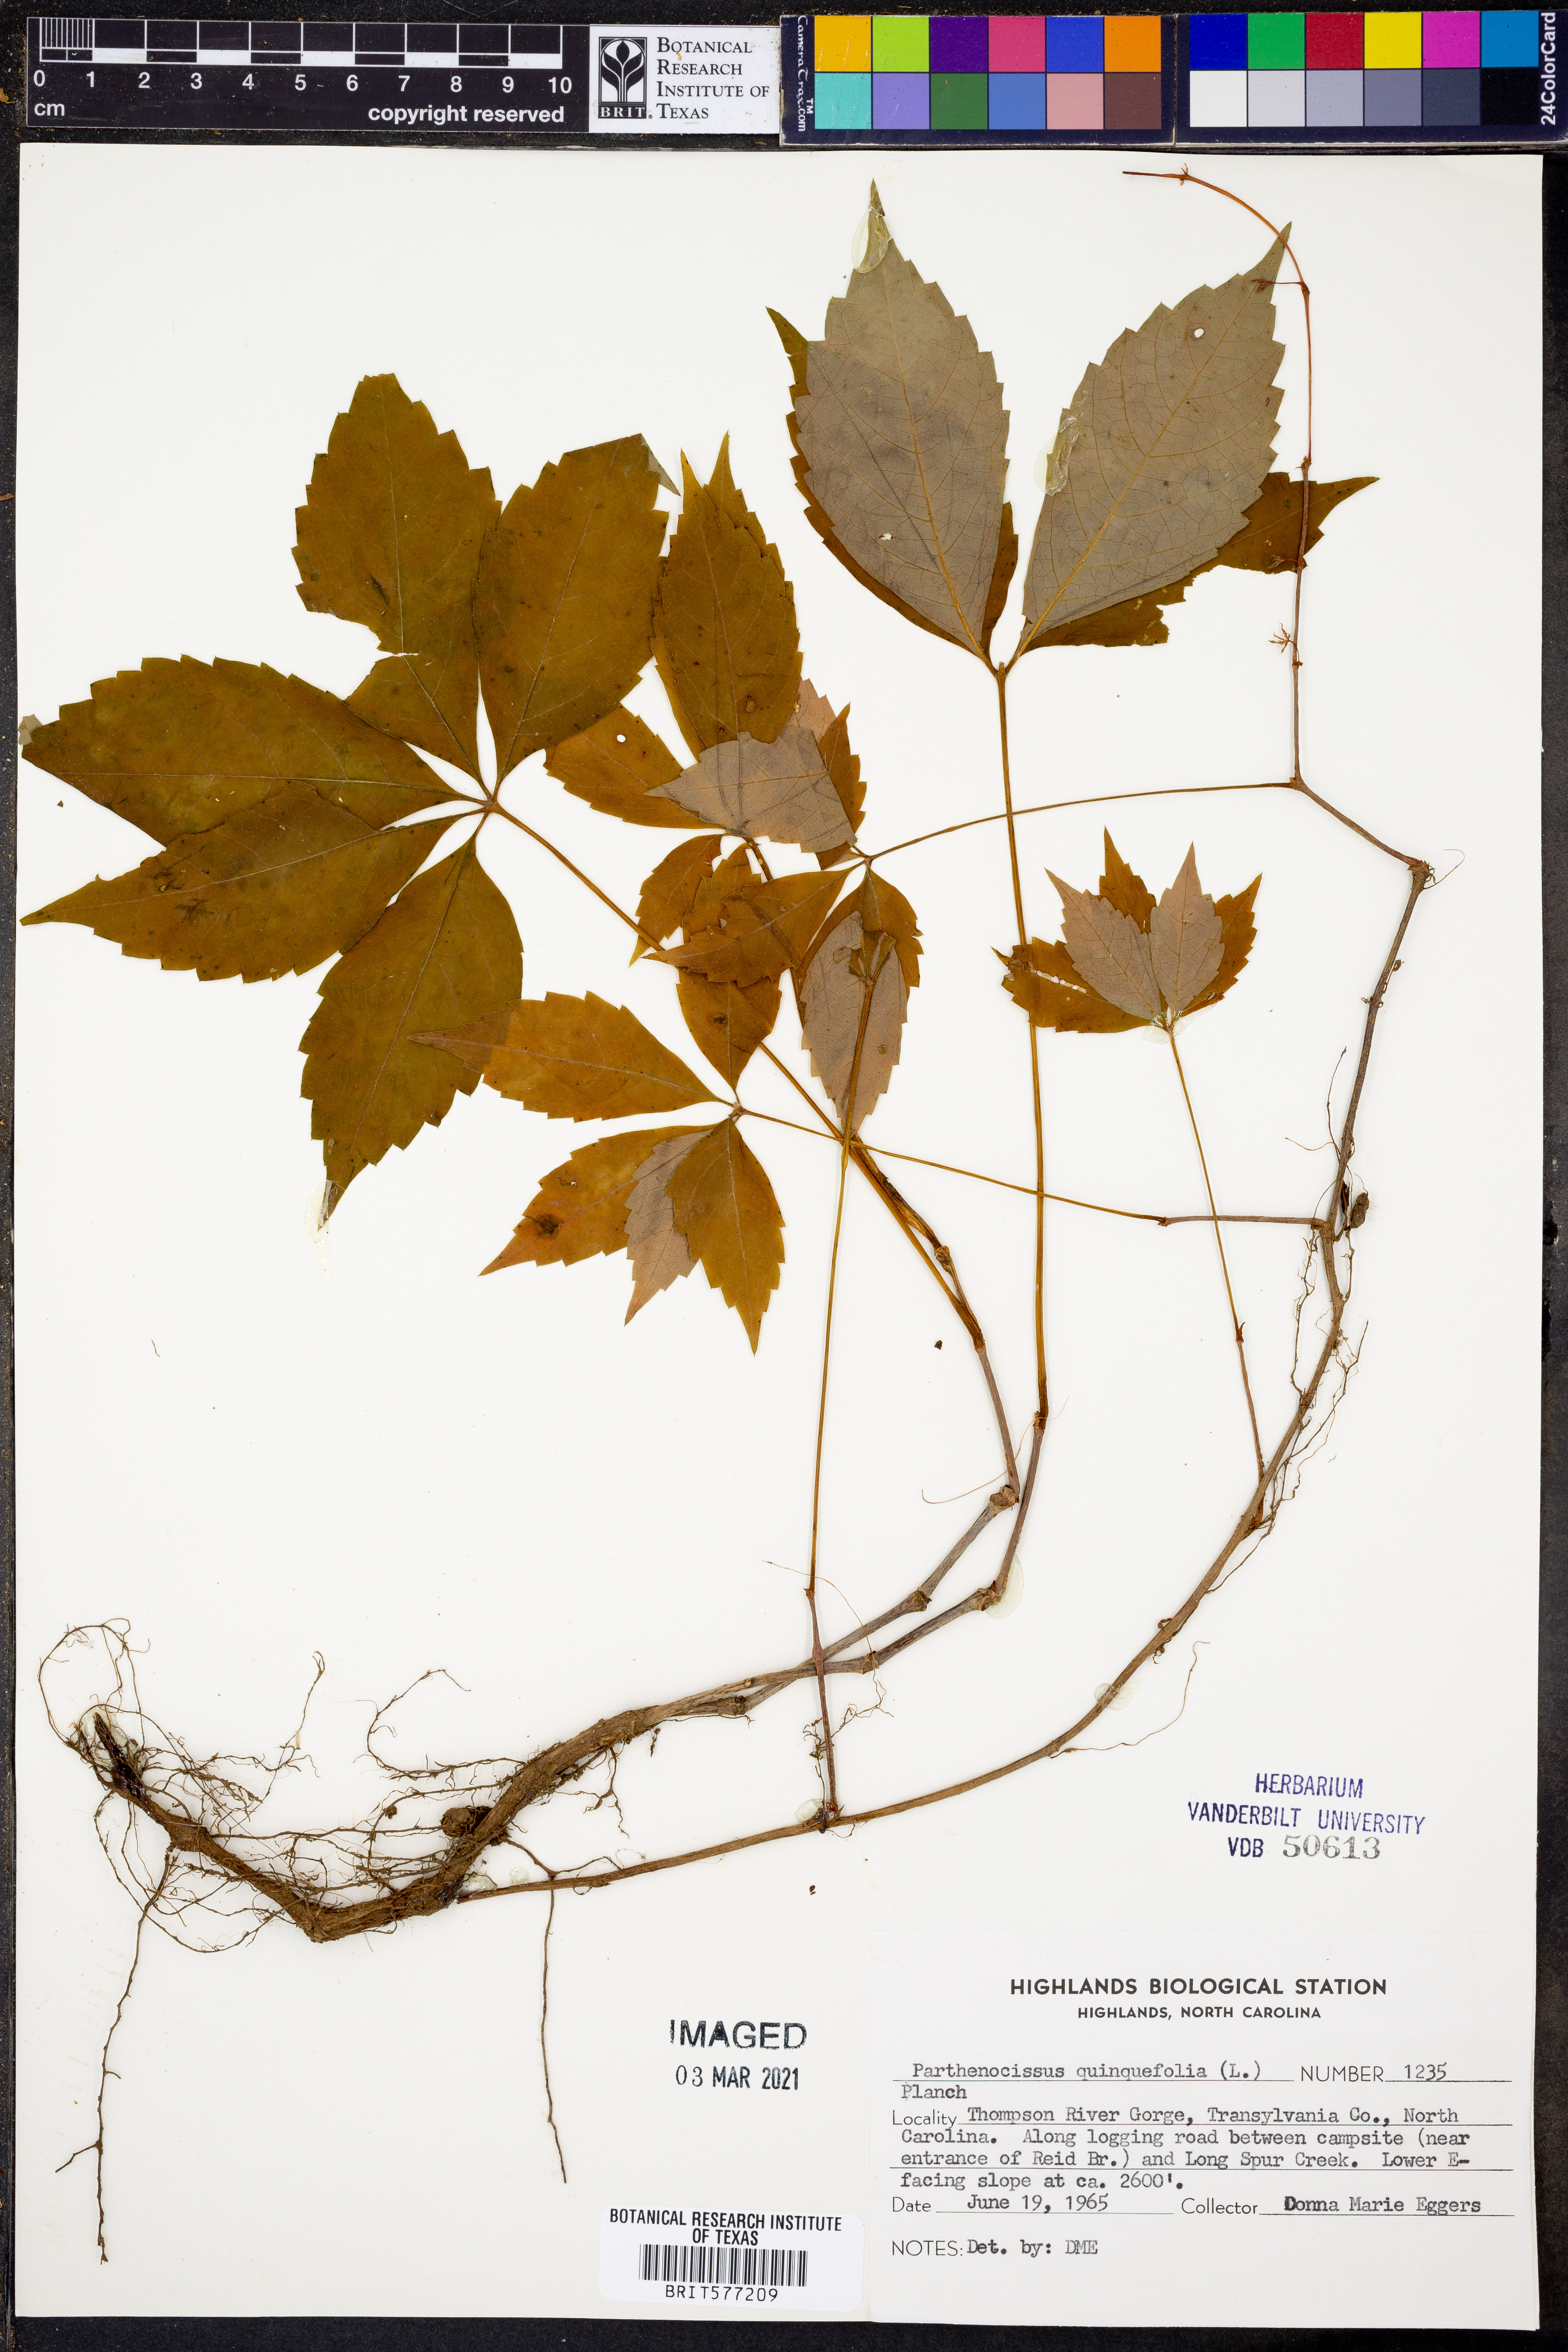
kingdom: Plantae
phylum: Tracheophyta
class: Magnoliopsida
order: Vitales
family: Vitaceae
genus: Parthenocissus
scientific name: Parthenocissus quinquefolia
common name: Virginia-creeper
